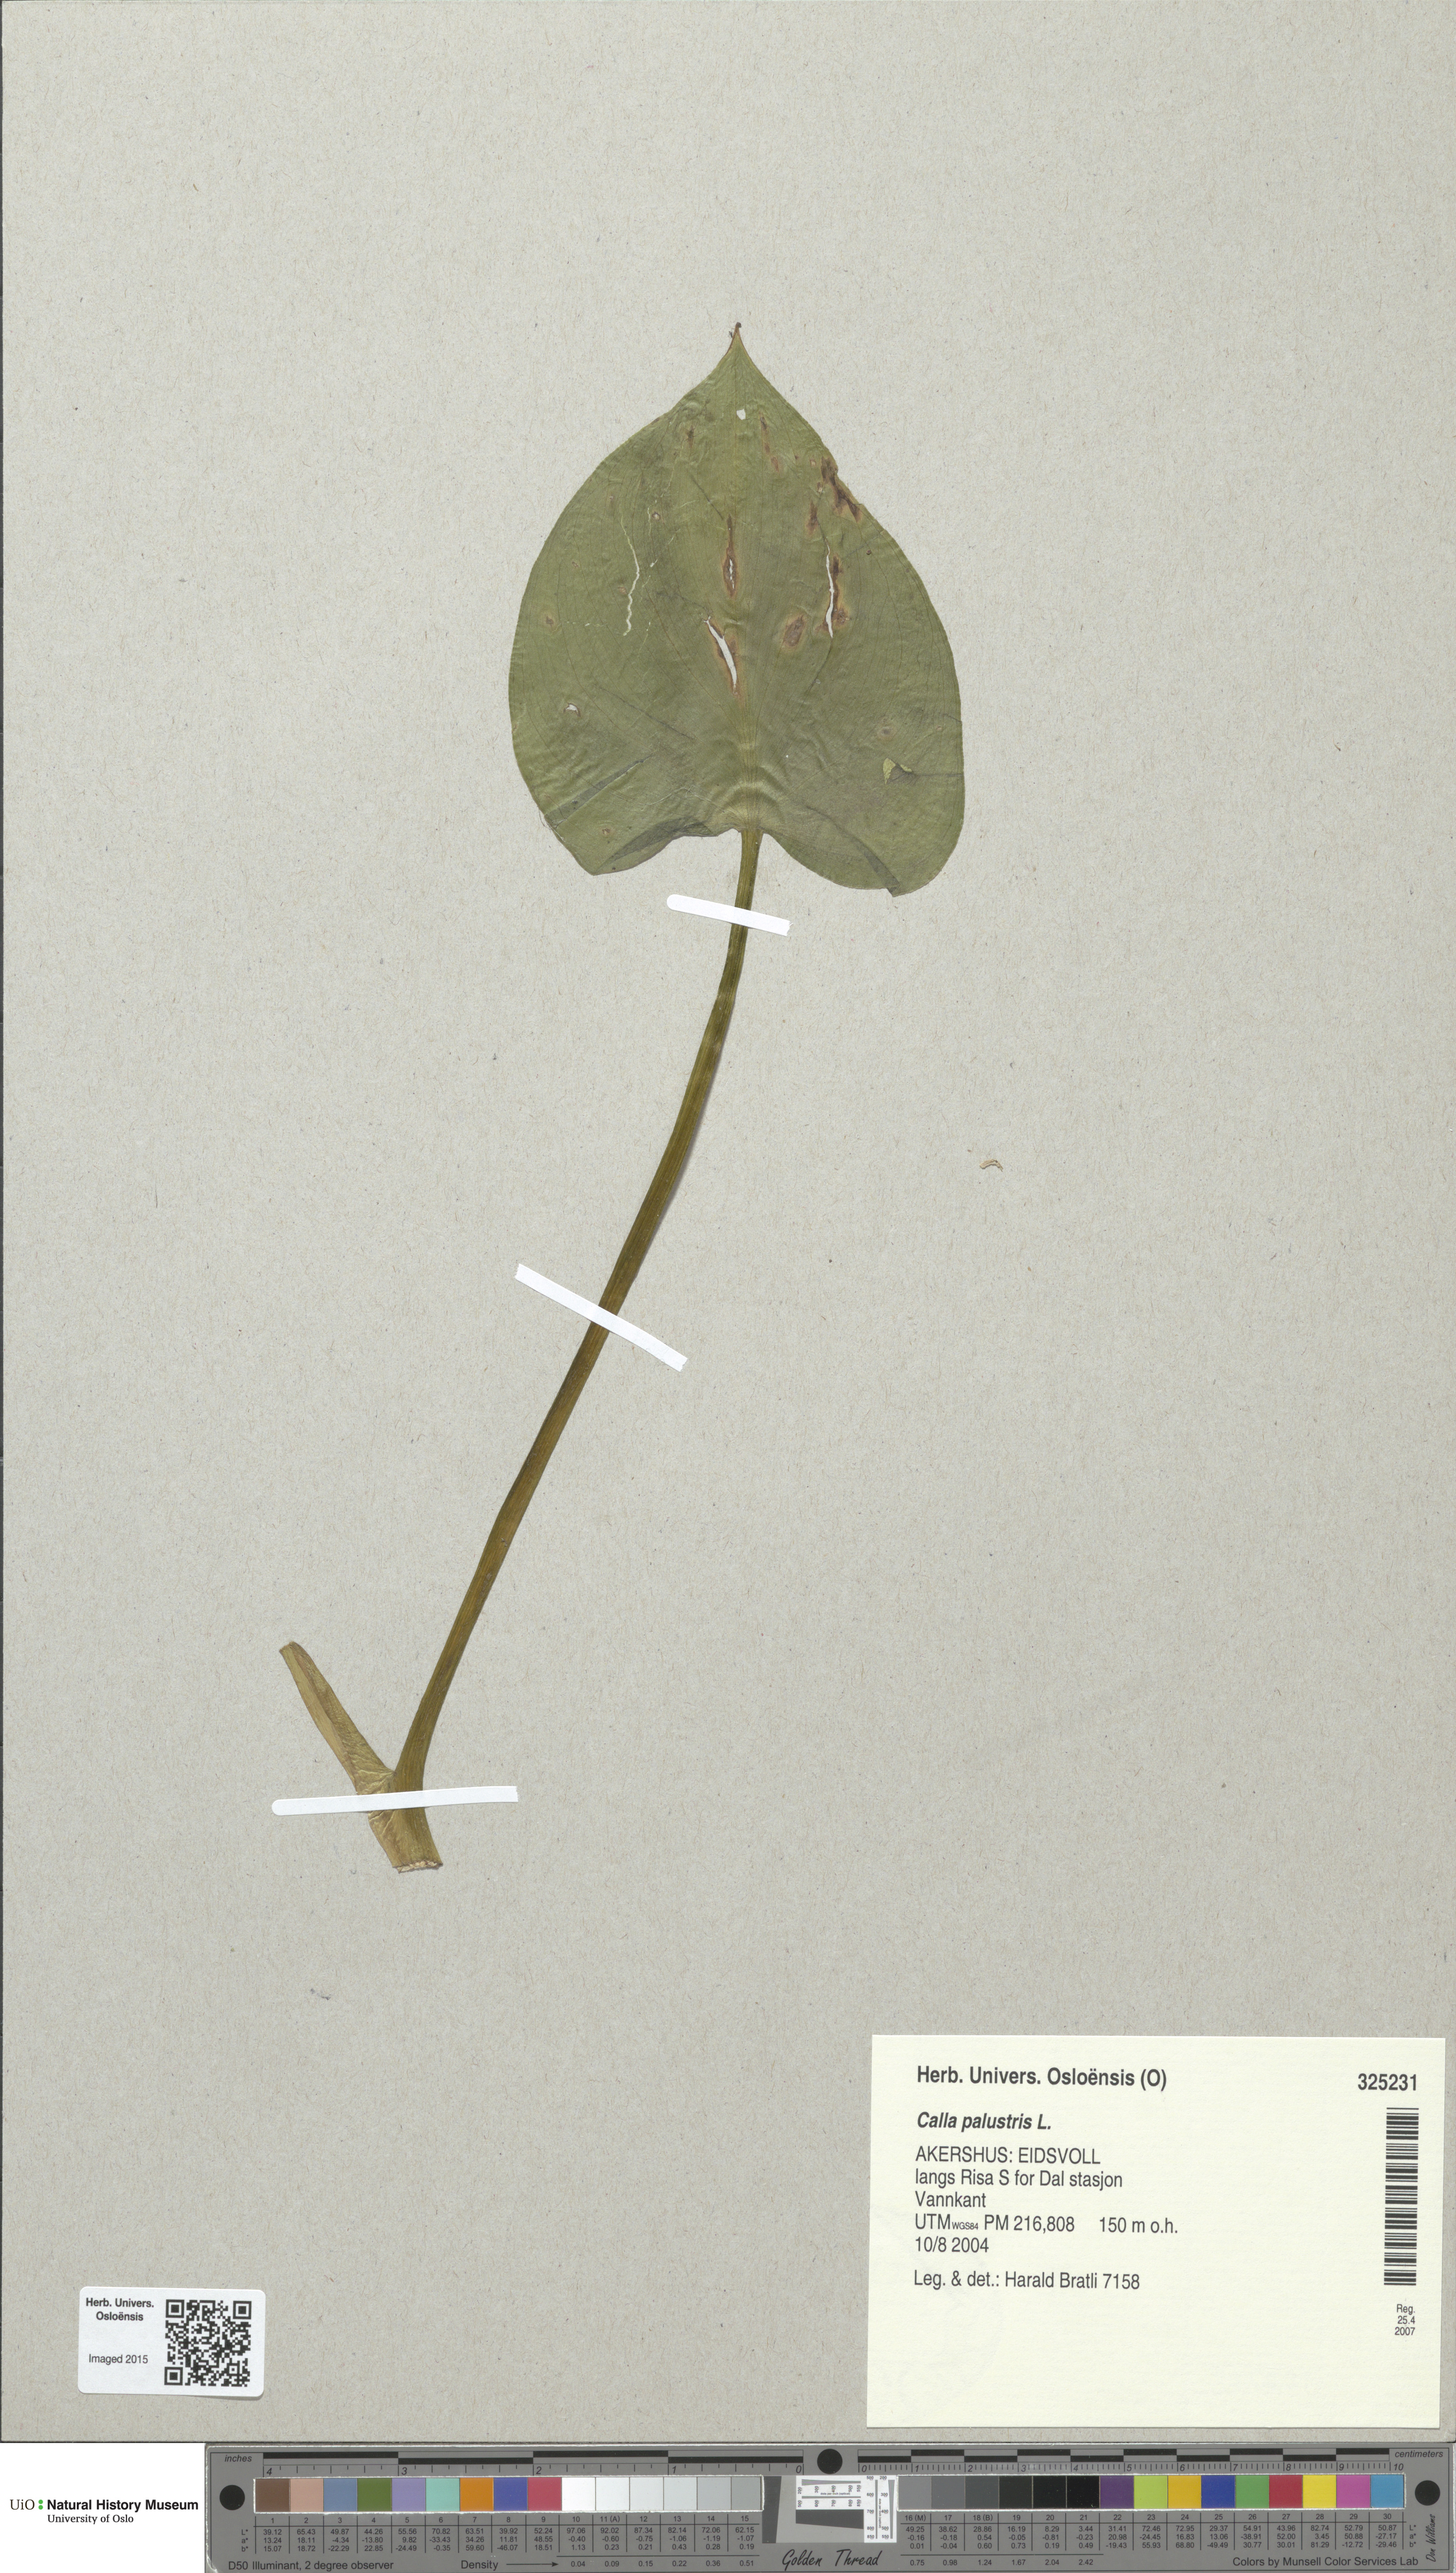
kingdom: Plantae
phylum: Tracheophyta
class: Liliopsida
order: Alismatales
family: Araceae
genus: Calla
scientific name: Calla palustris
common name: Bog arum
